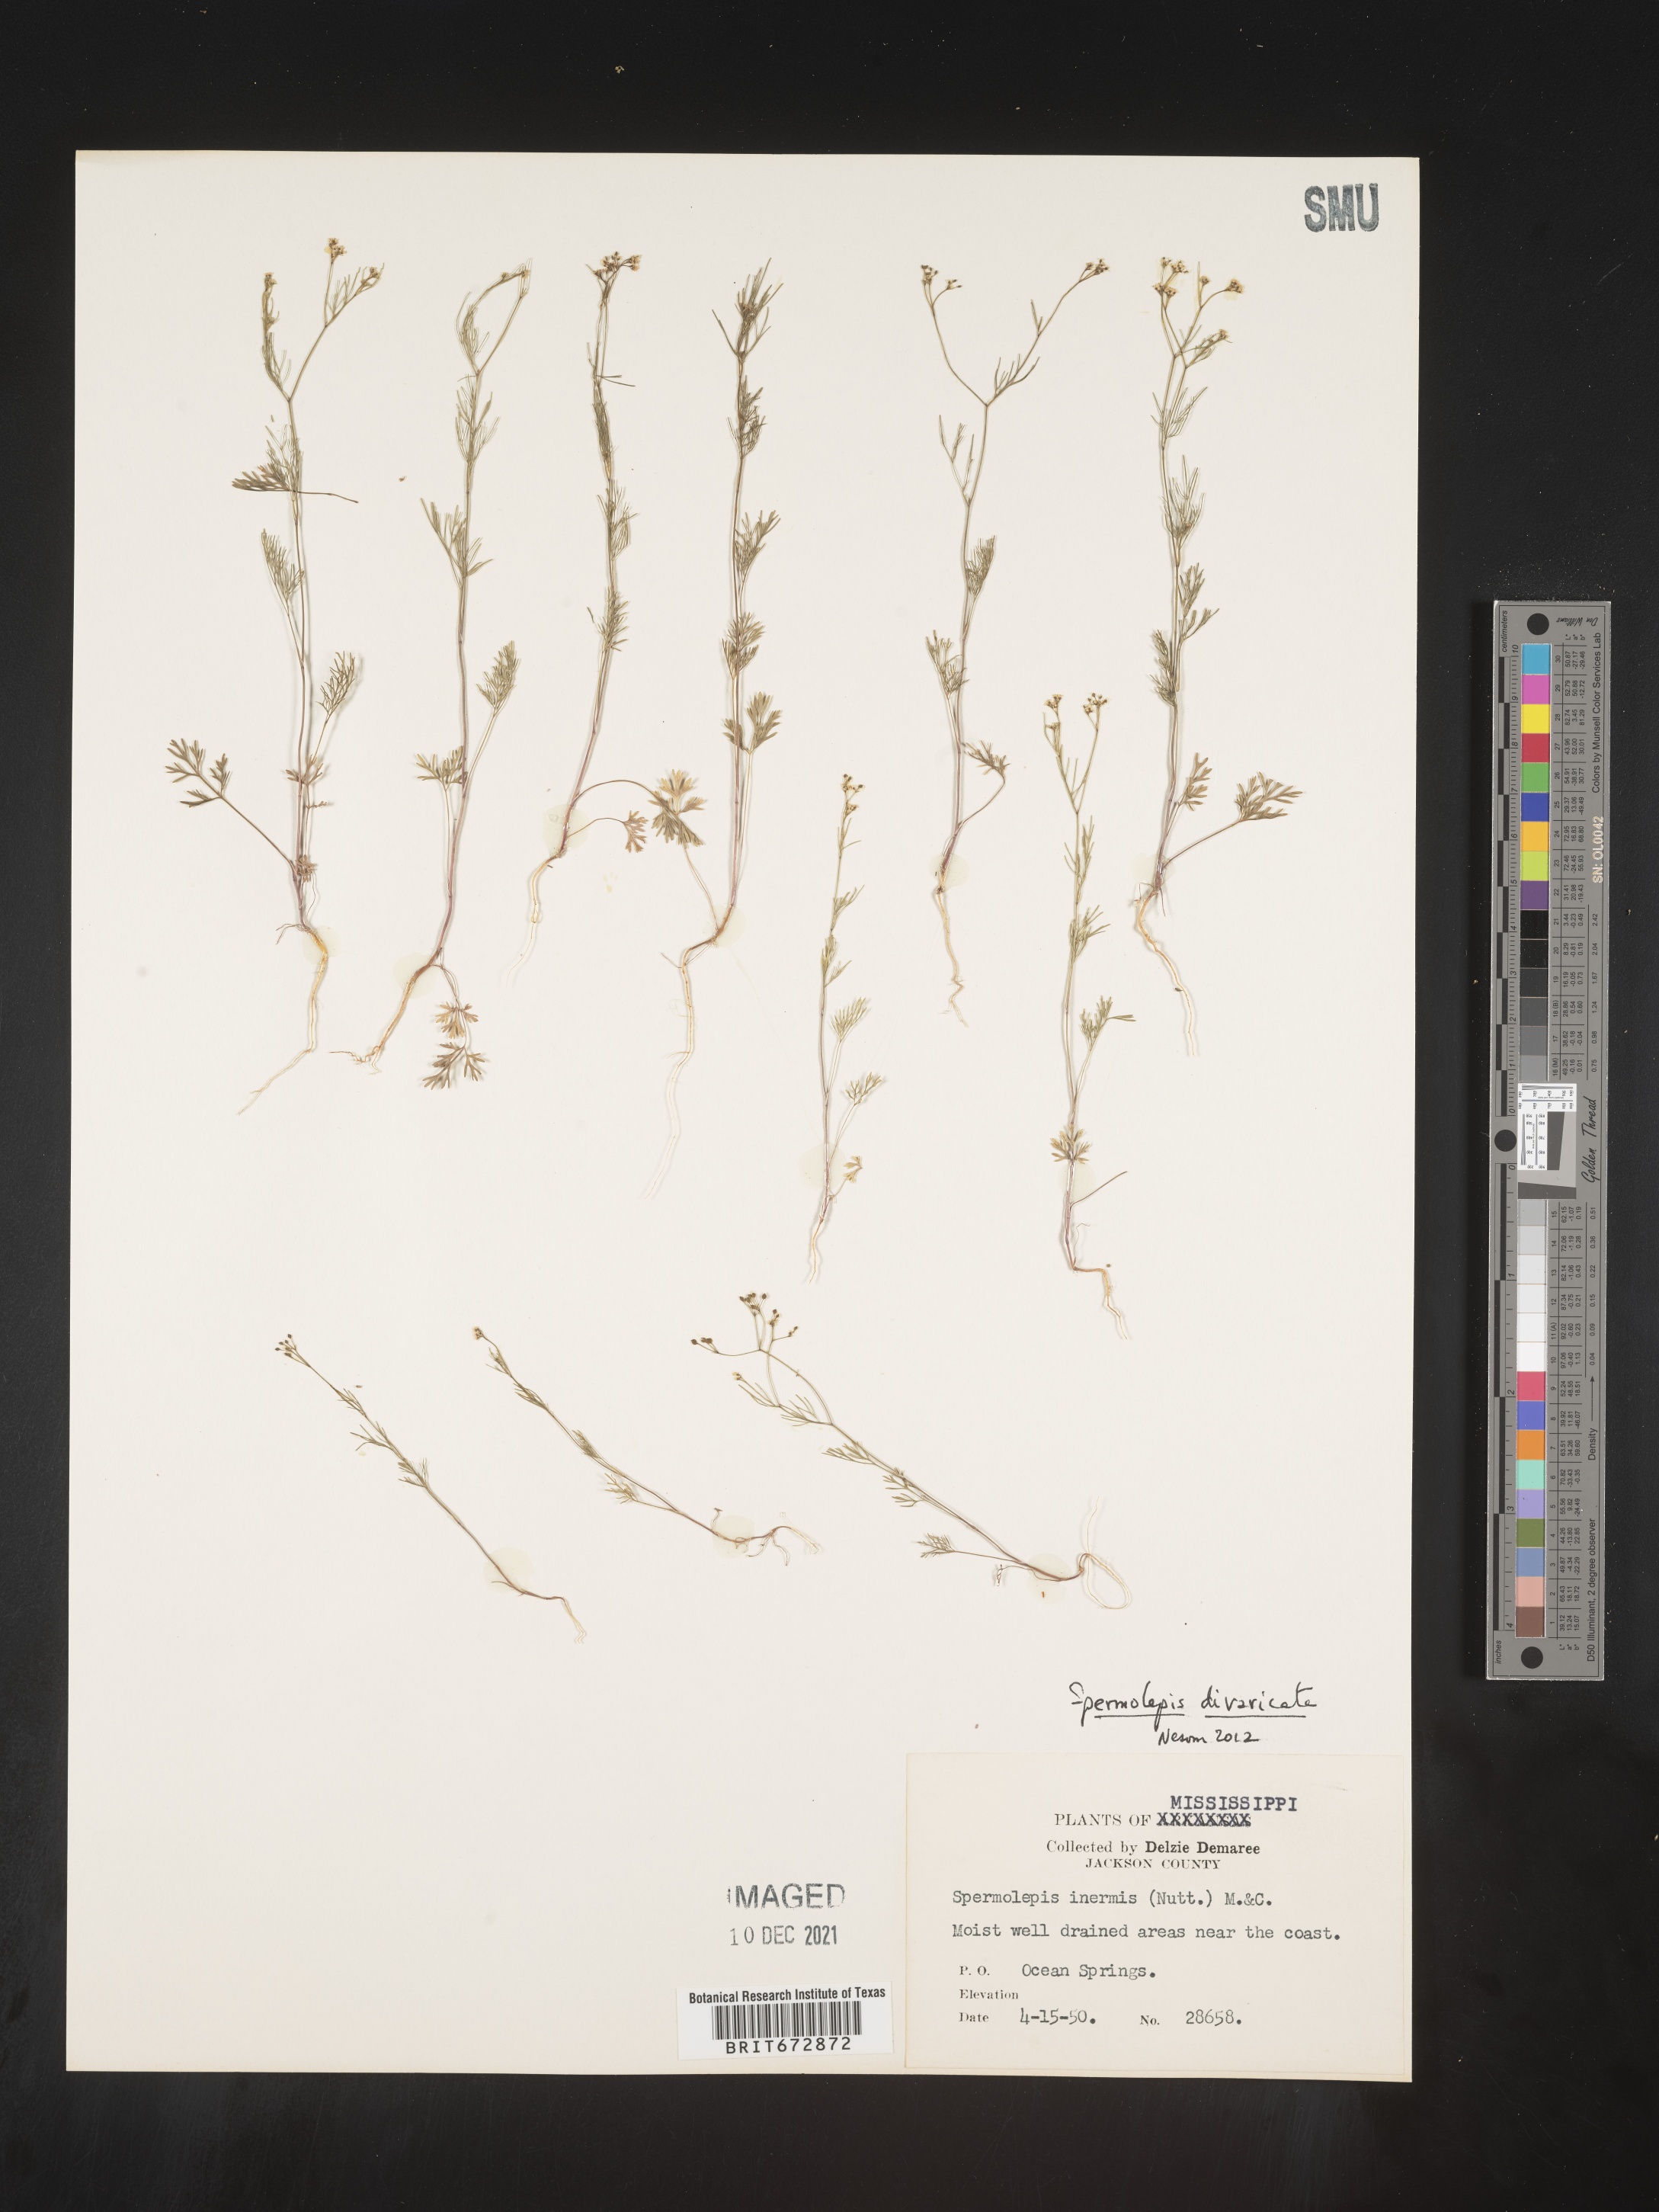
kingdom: Plantae
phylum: Tracheophyta
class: Magnoliopsida
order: Apiales
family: Apiaceae
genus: Spermolepis
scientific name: Spermolepis divaricata
